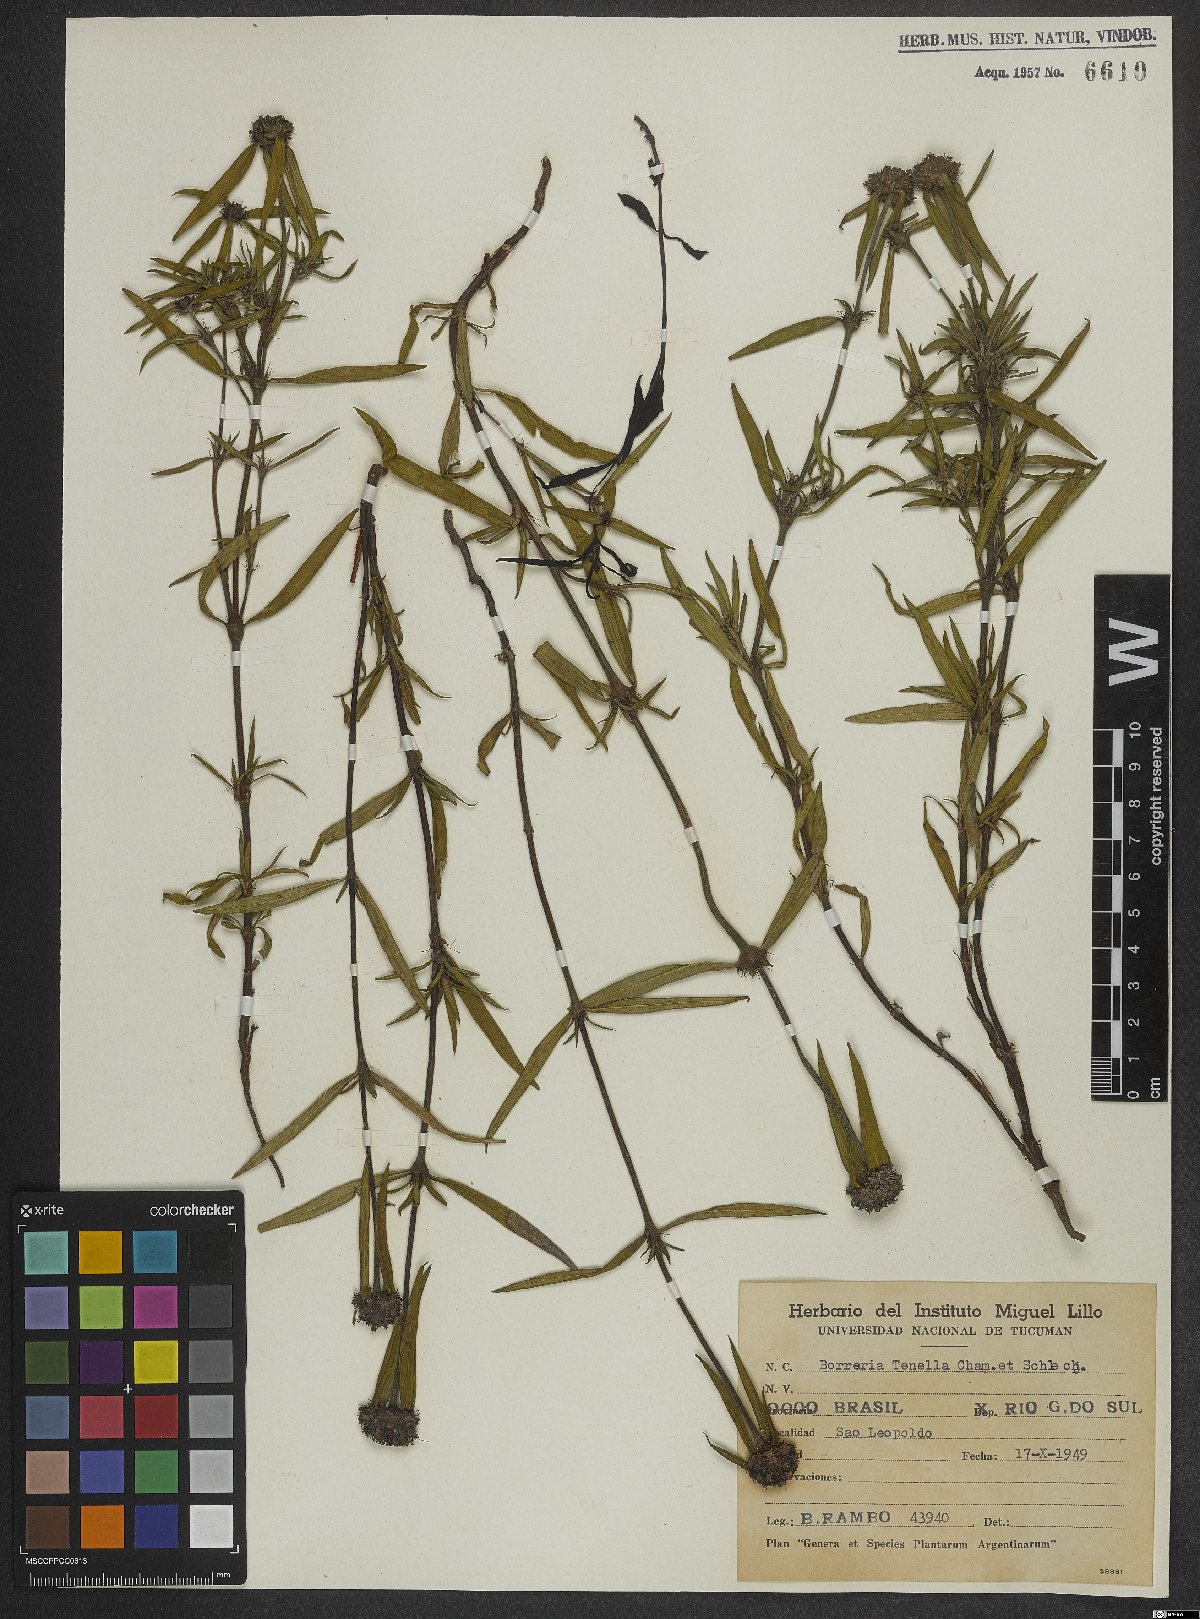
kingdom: Plantae
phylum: Tracheophyta
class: Magnoliopsida
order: Gentianales
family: Rubiaceae
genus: Spermacoce
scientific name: Spermacoce orinocensis
